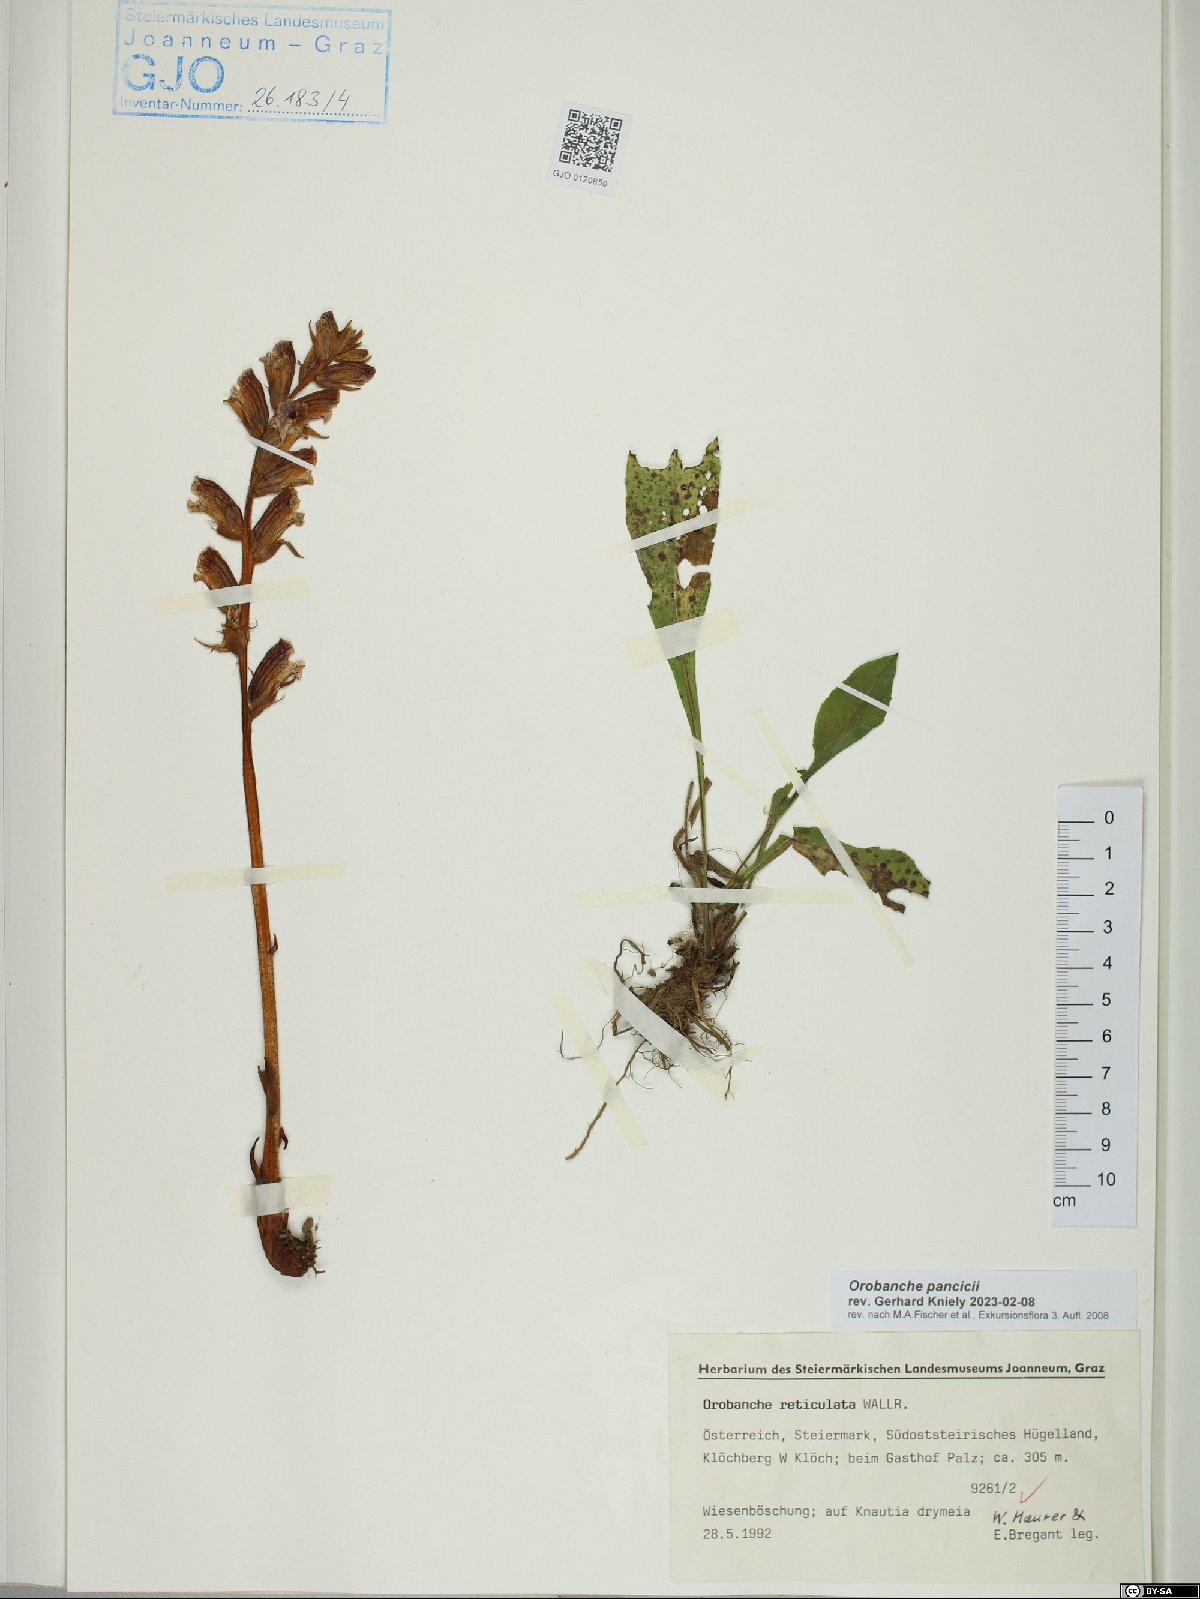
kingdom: Plantae
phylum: Tracheophyta
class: Magnoliopsida
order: Lamiales
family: Orobanchaceae
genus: Orobanche
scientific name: Orobanche pancicii
